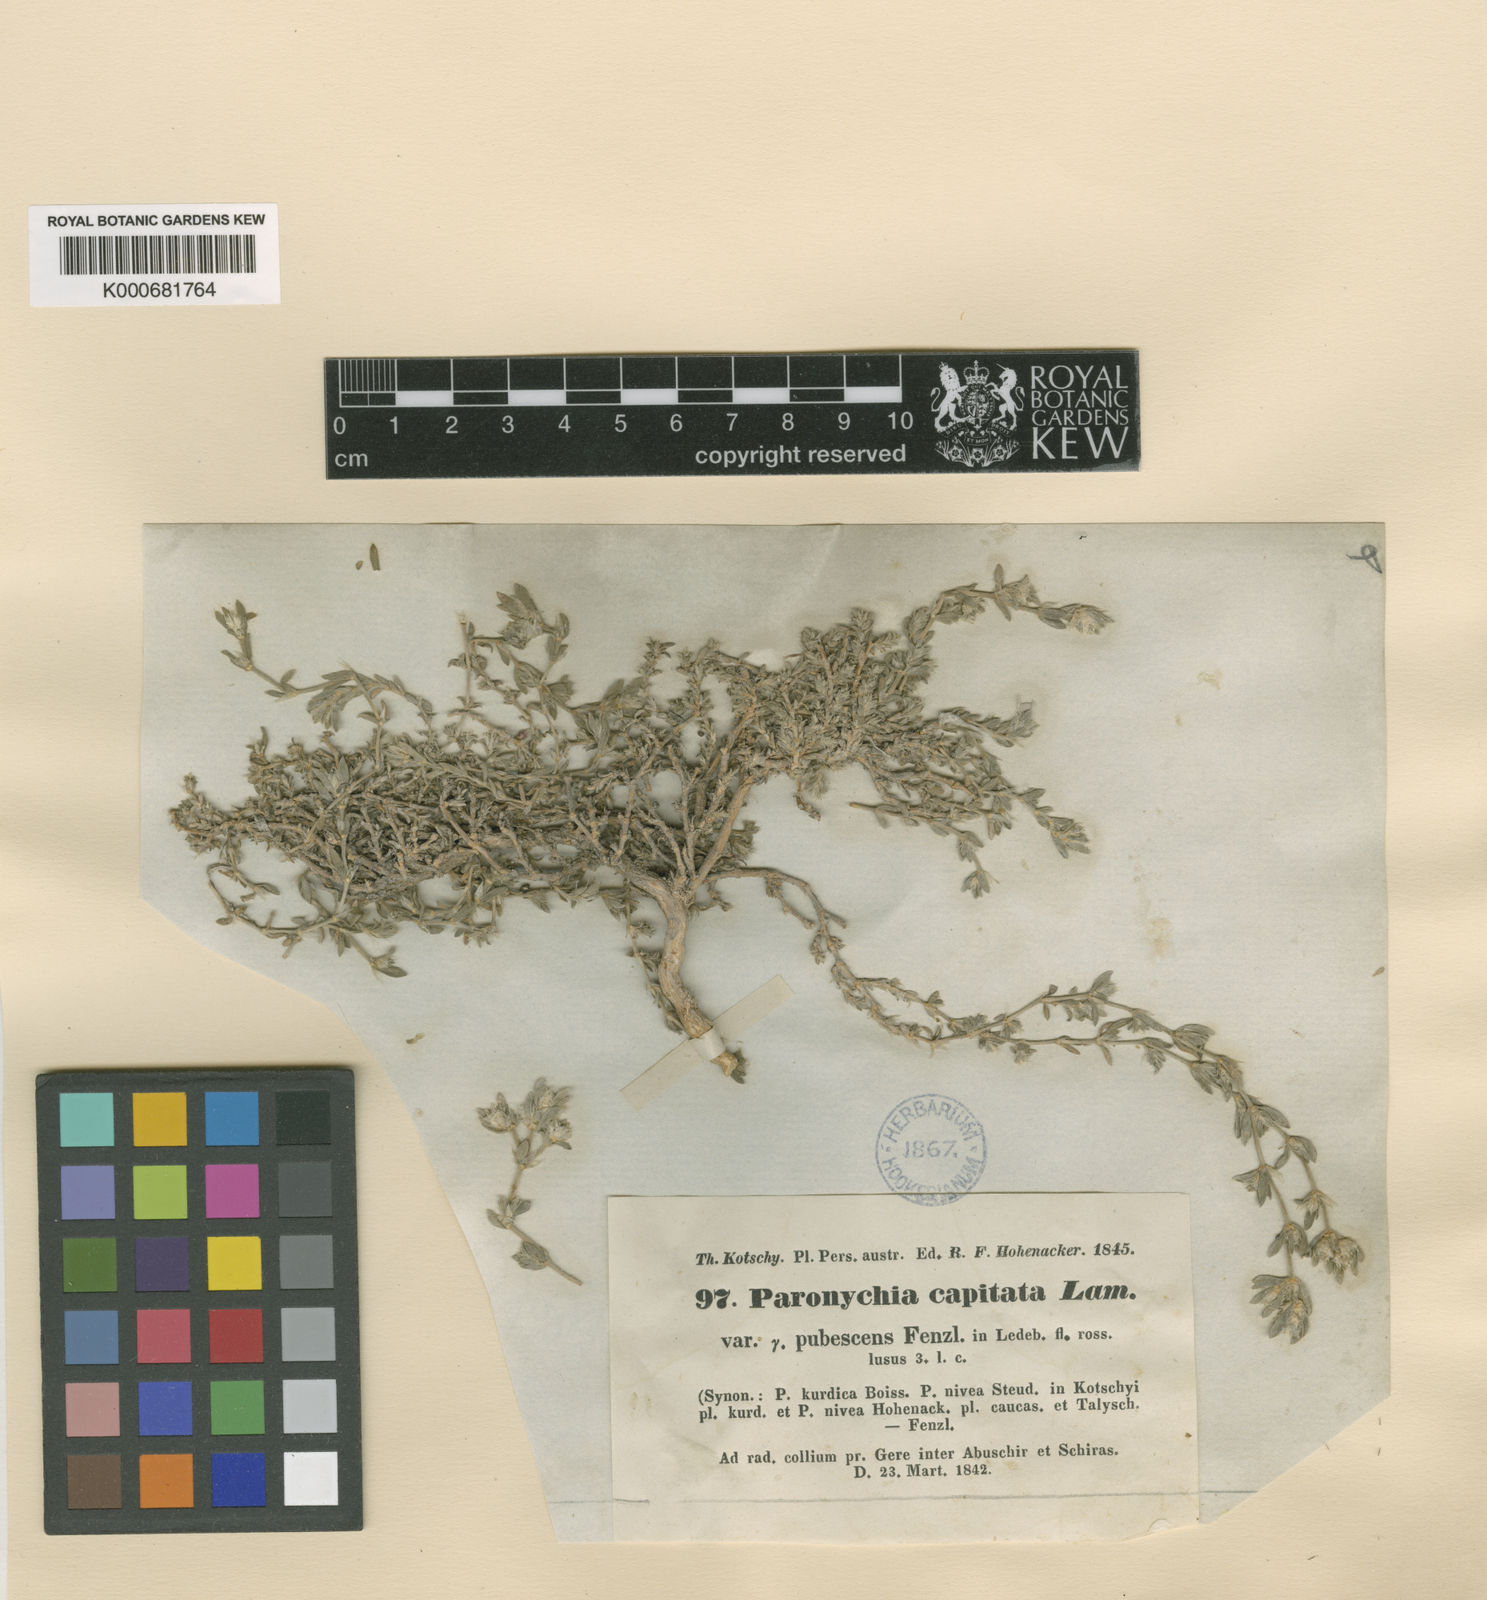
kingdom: Plantae
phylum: Tracheophyta
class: Magnoliopsida
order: Caryophyllales
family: Caryophyllaceae
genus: Paronychia
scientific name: Paronychia kurdica
